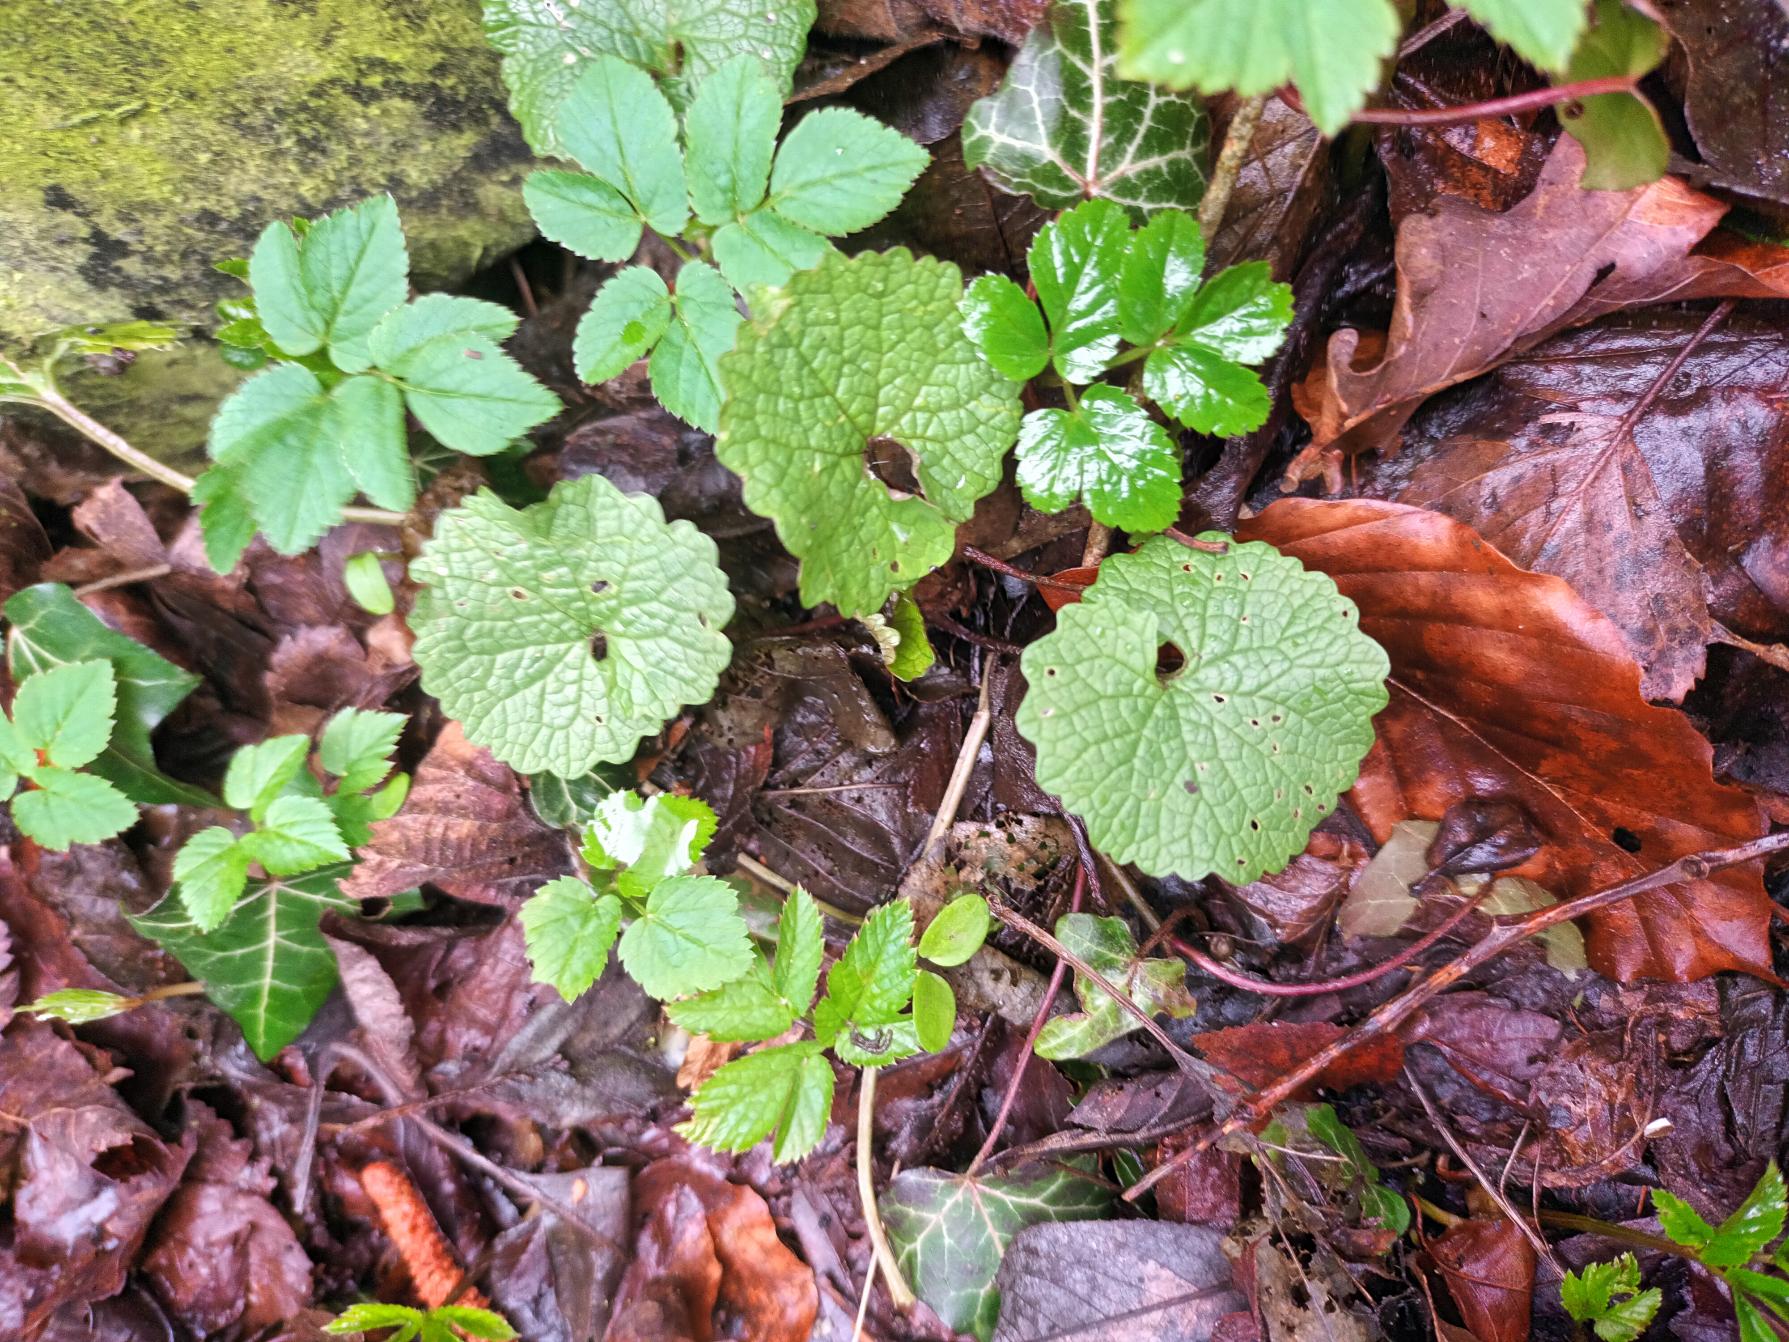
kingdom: Plantae
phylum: Tracheophyta
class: Magnoliopsida
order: Brassicales
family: Brassicaceae
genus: Alliaria
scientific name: Alliaria petiolata
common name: Løgkarse
